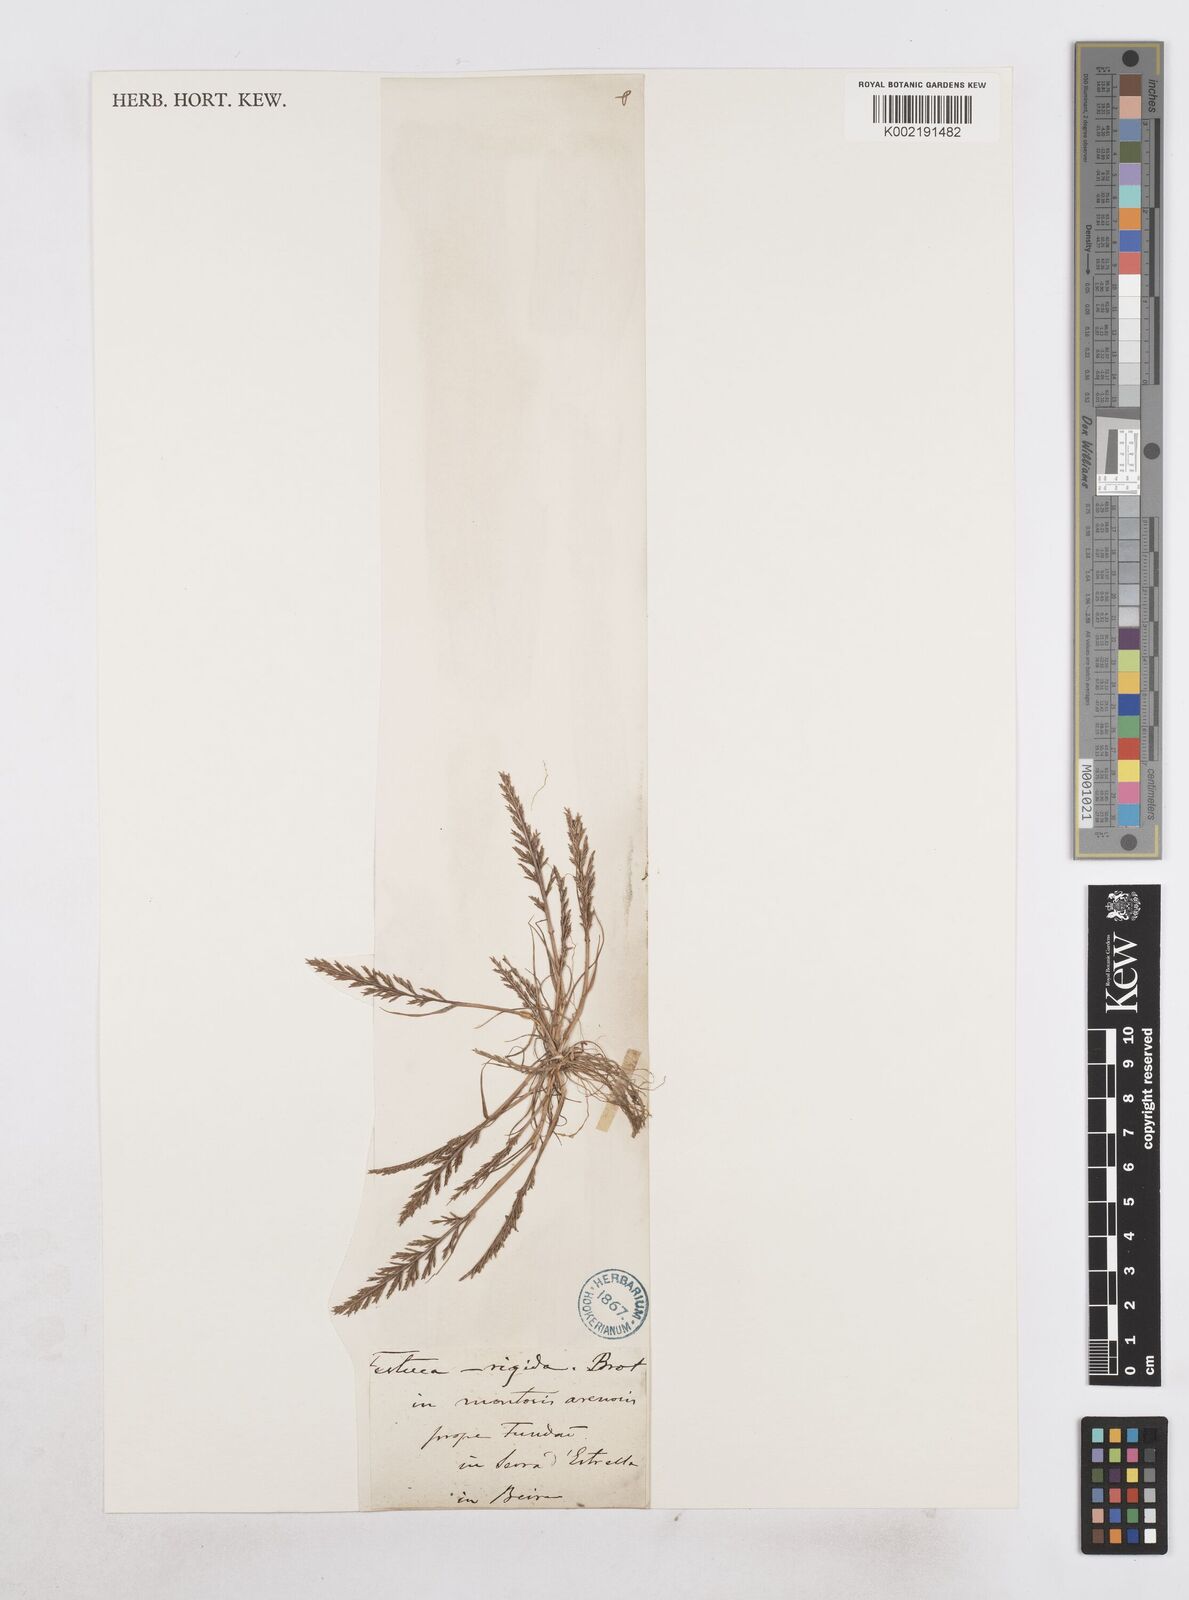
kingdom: Plantae
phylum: Tracheophyta
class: Liliopsida
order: Poales
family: Poaceae
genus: Catapodium
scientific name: Catapodium rigidum
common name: Fern-grass
